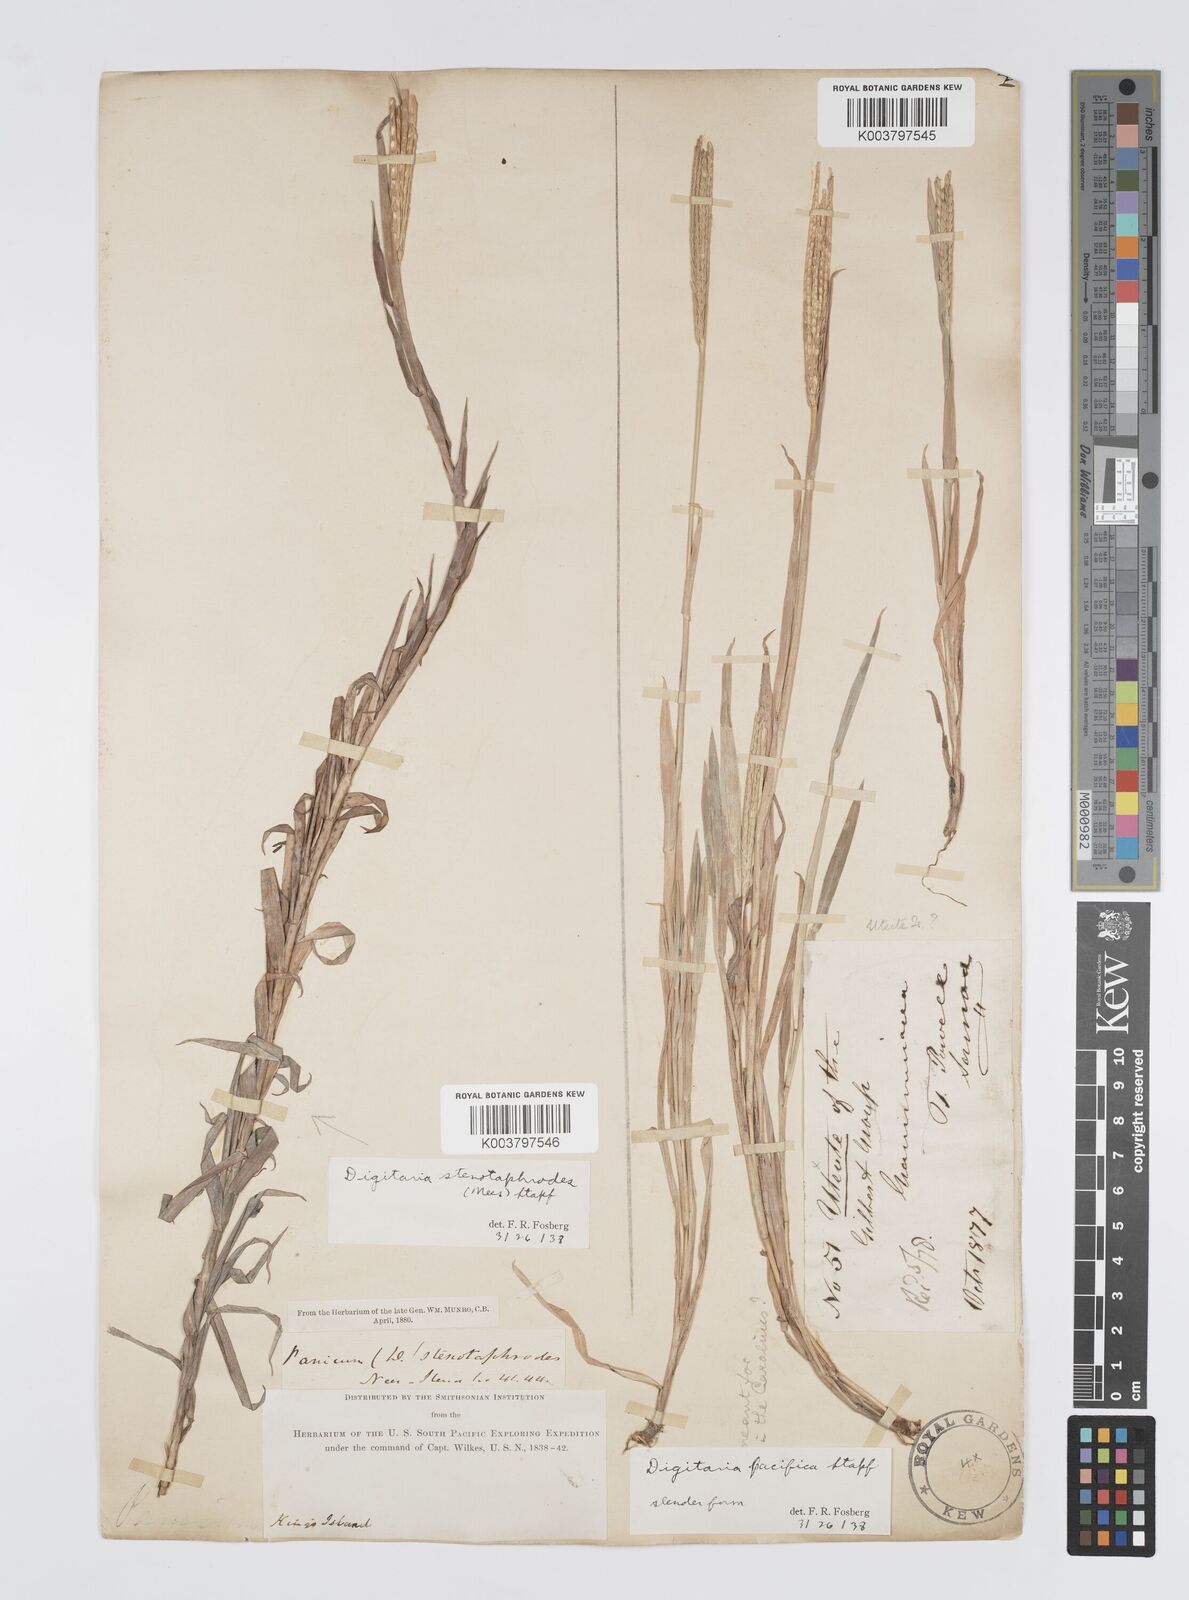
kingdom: Plantae
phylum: Tracheophyta
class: Liliopsida
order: Poales
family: Poaceae
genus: Digitaria
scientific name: Digitaria stenotaphrodes
